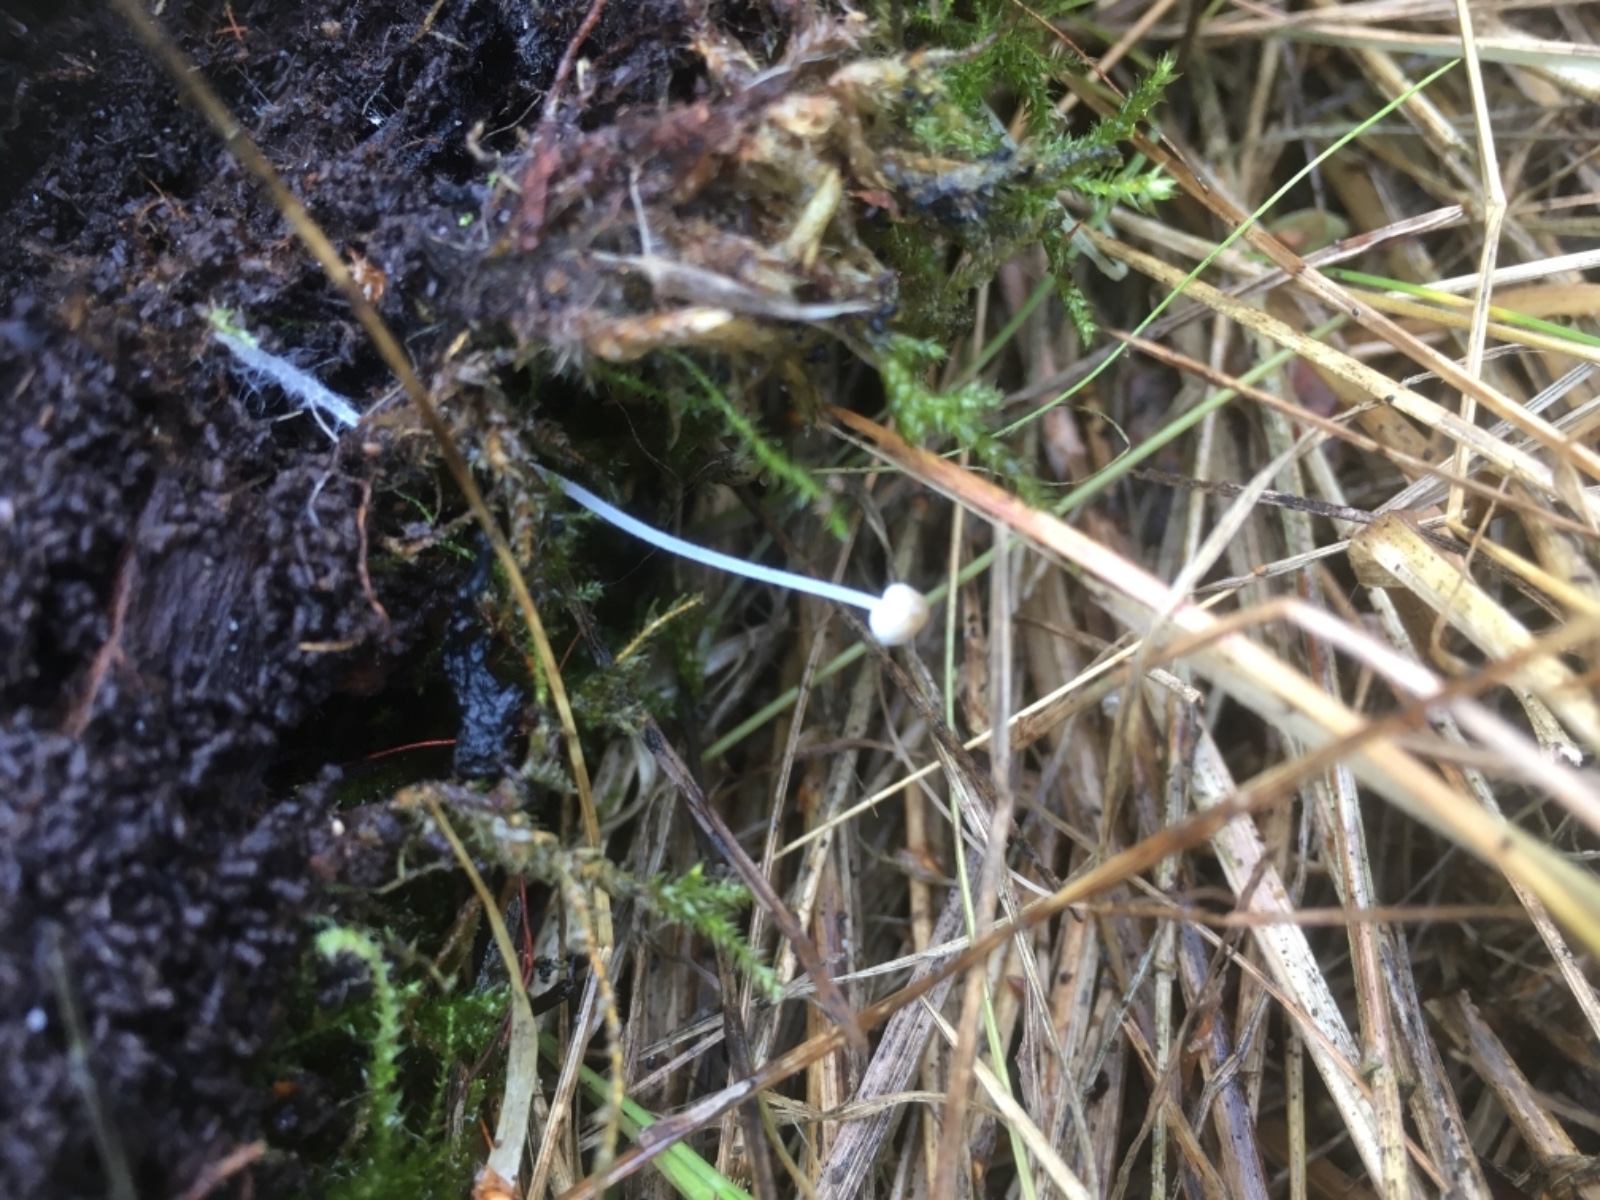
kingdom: Fungi
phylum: Basidiomycota
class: Agaricomycetes
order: Agaricales
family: Mycenaceae
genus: Mycena
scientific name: Mycena
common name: huesvamp
